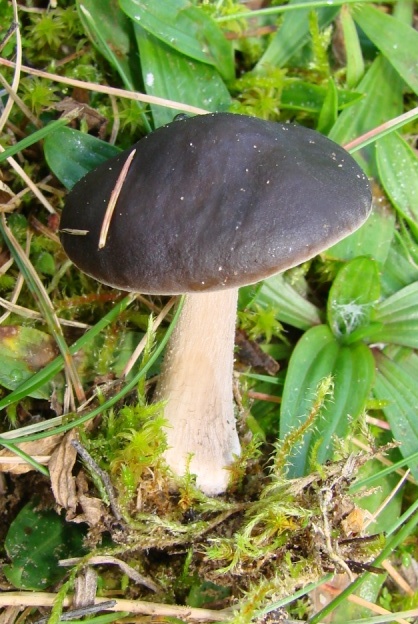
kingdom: Fungi
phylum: Basidiomycota
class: Agaricomycetes
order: Agaricales
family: Tricholomataceae
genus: Melanoleuca
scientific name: Melanoleuca
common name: munkehat
